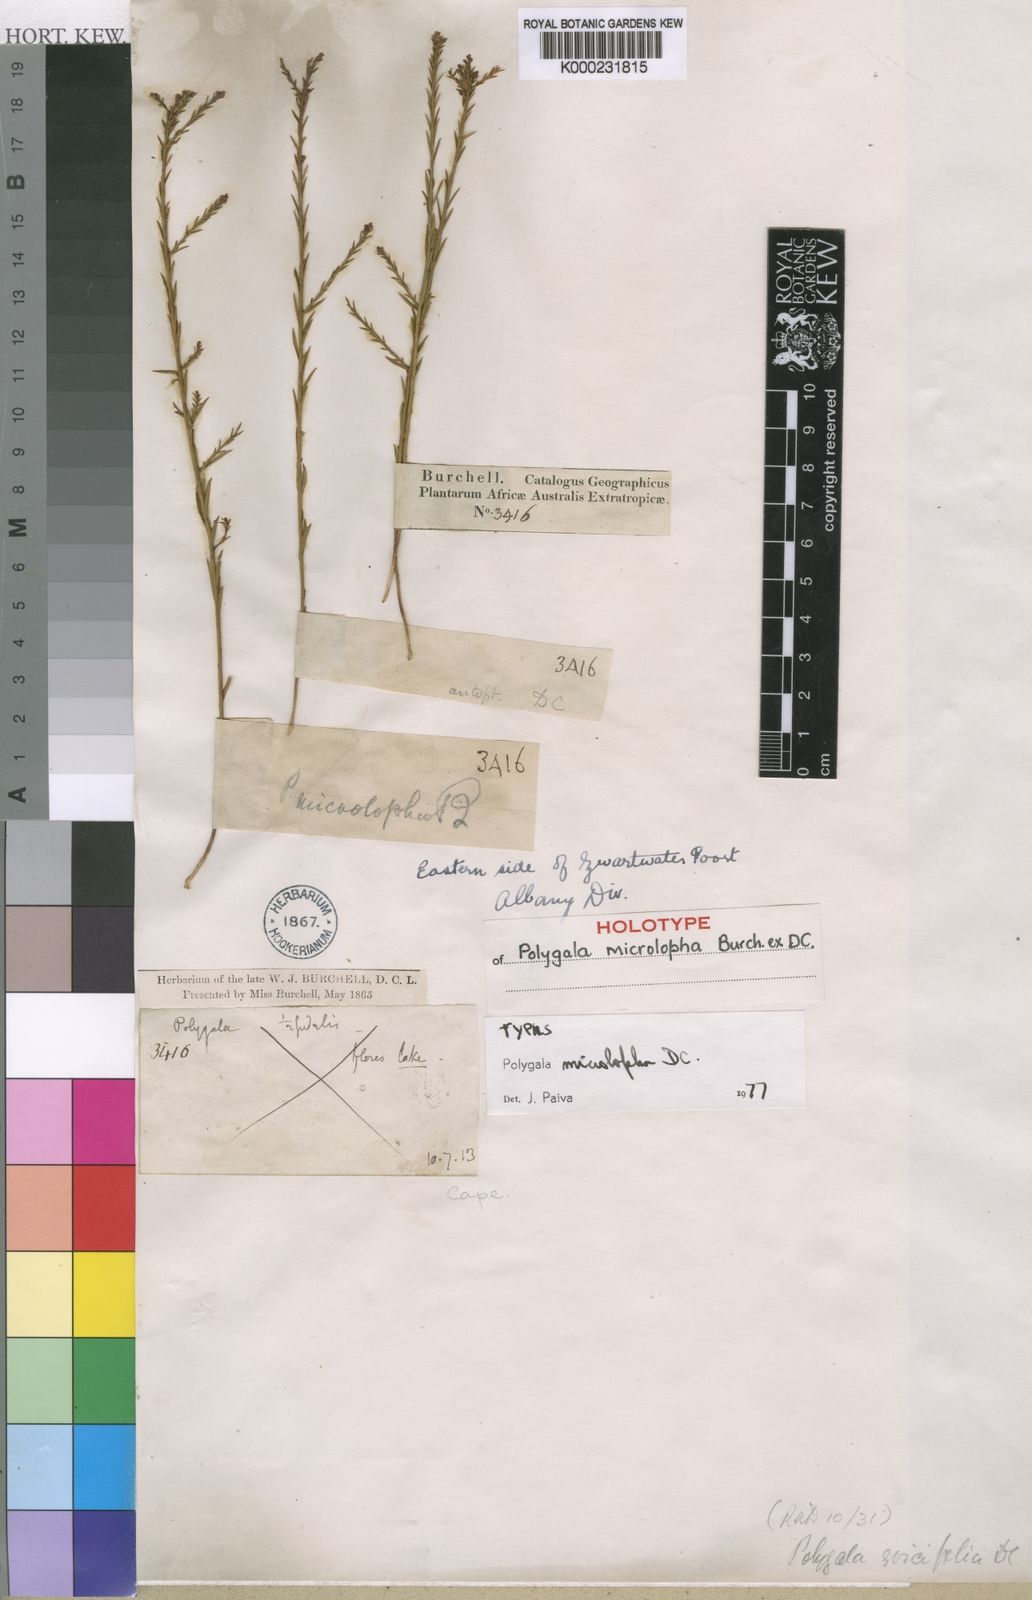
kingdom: Plantae
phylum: Tracheophyta
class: Magnoliopsida
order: Fabales
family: Polygalaceae
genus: Polygala
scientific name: Polygala microlopha
